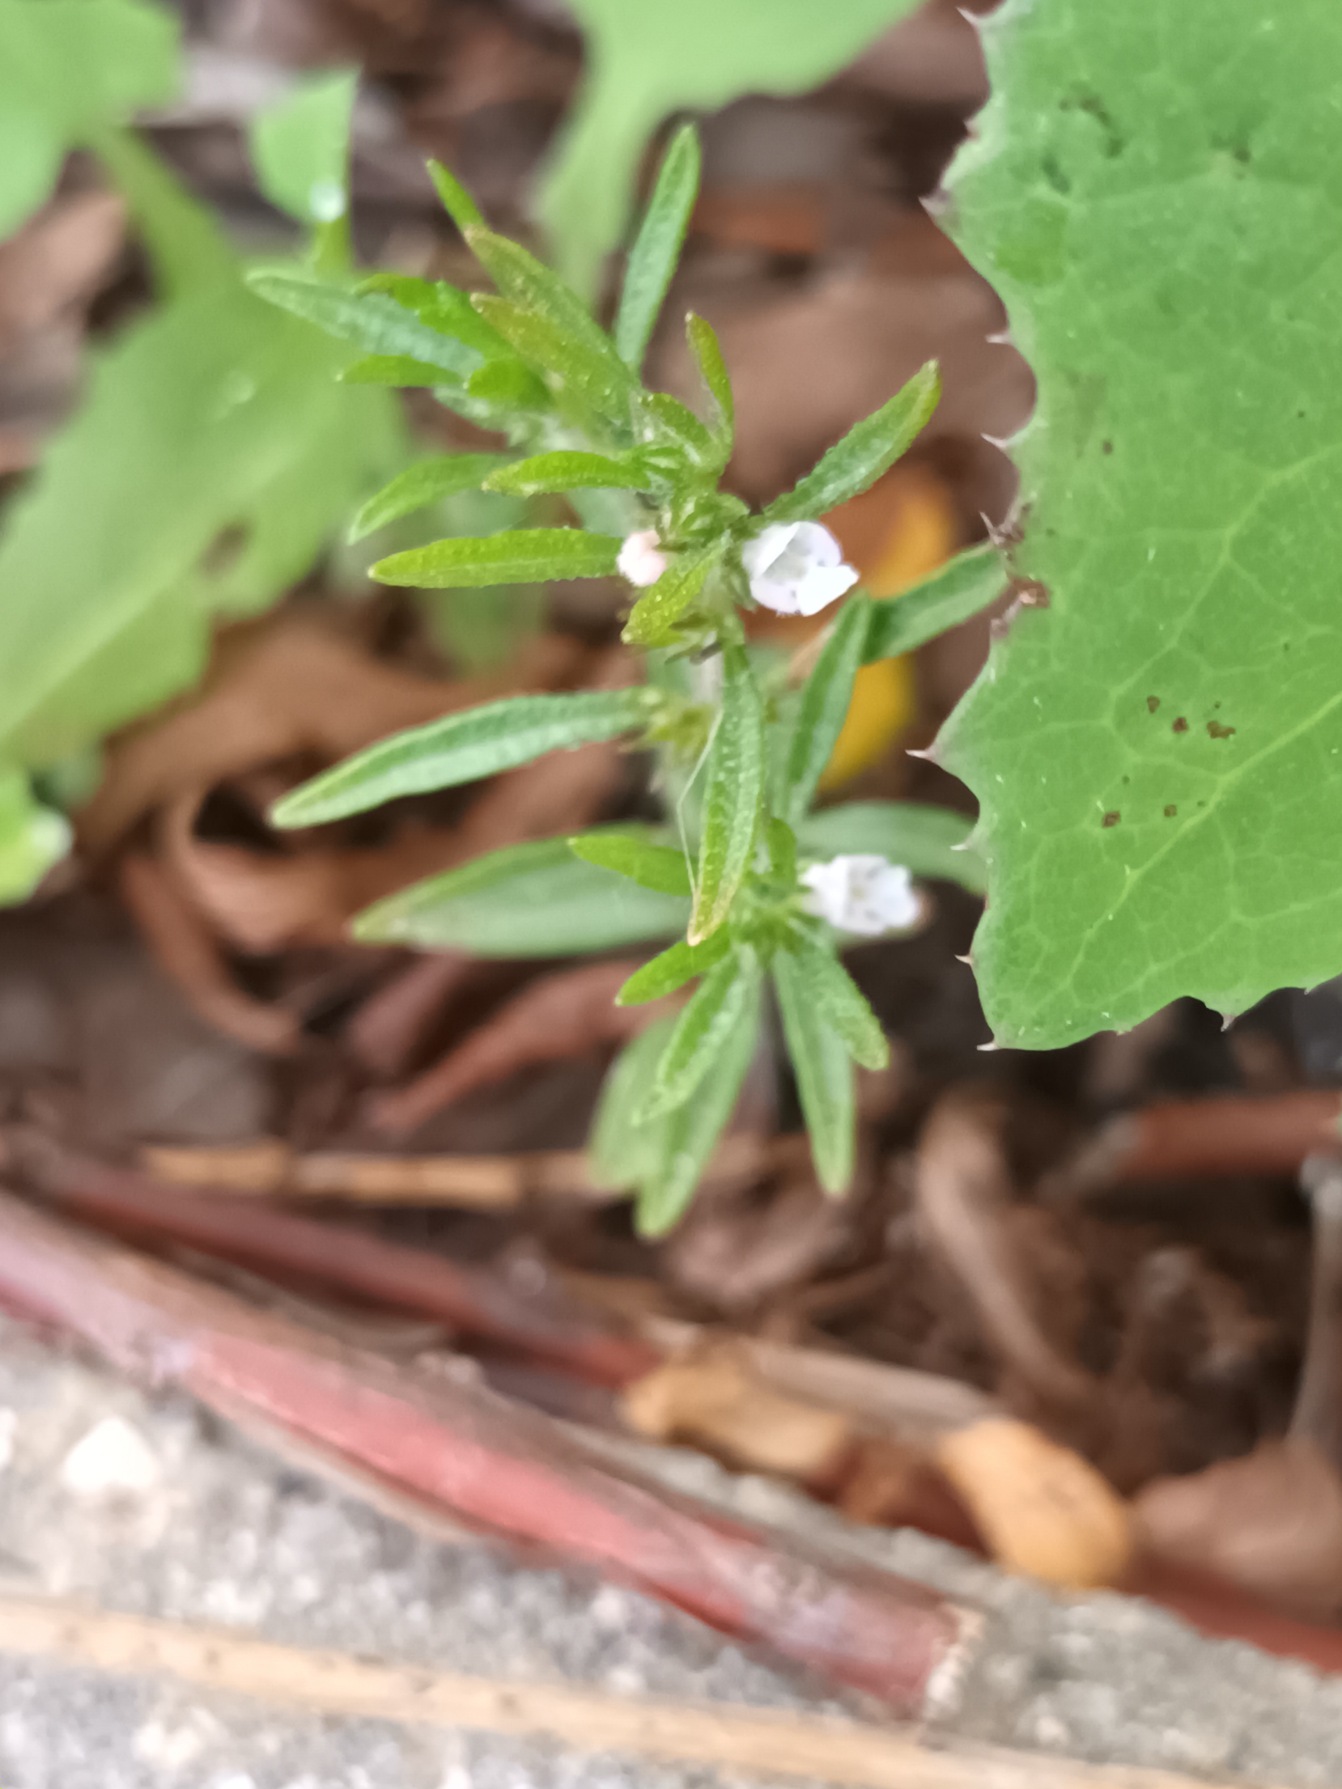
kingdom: Plantae
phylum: Tracheophyta
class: Magnoliopsida
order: Lamiales
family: Lamiaceae
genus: Satureja
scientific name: Satureja hortensis
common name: Almindelig sar
